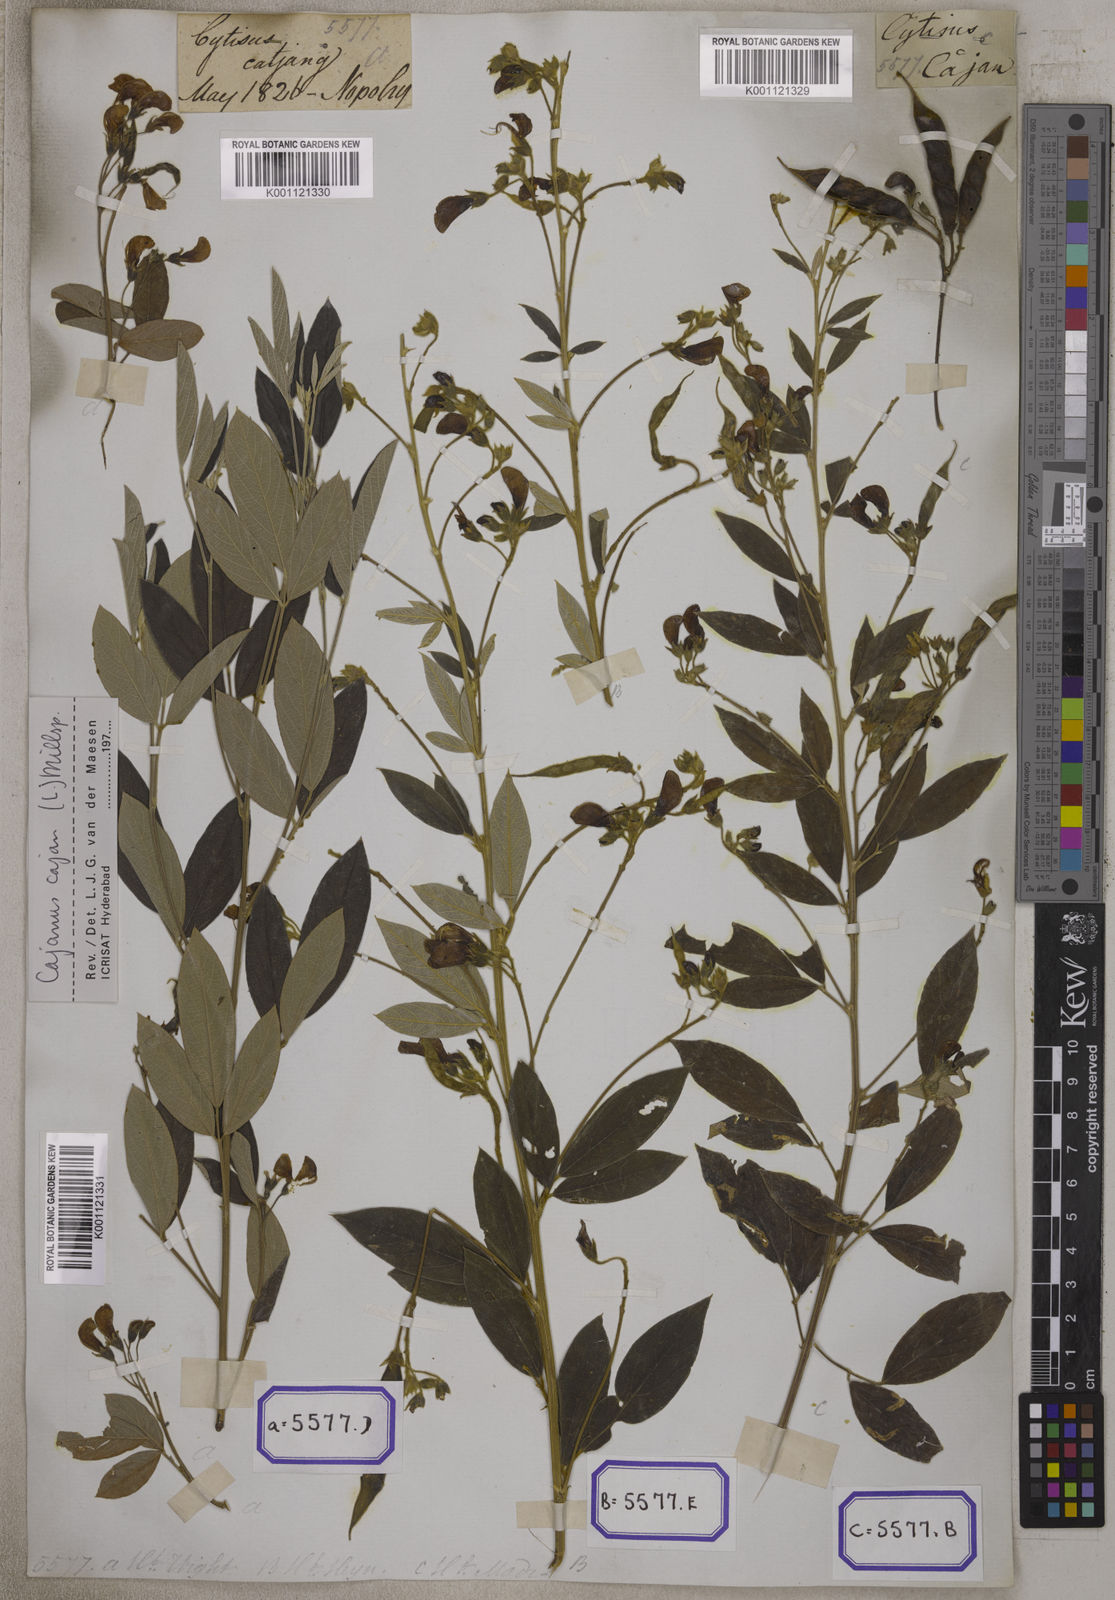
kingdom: Plantae
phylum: Tracheophyta
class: Magnoliopsida
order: Fabales
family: Fabaceae
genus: Cajanus
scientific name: Cajanus cajan
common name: Pigeonpea
